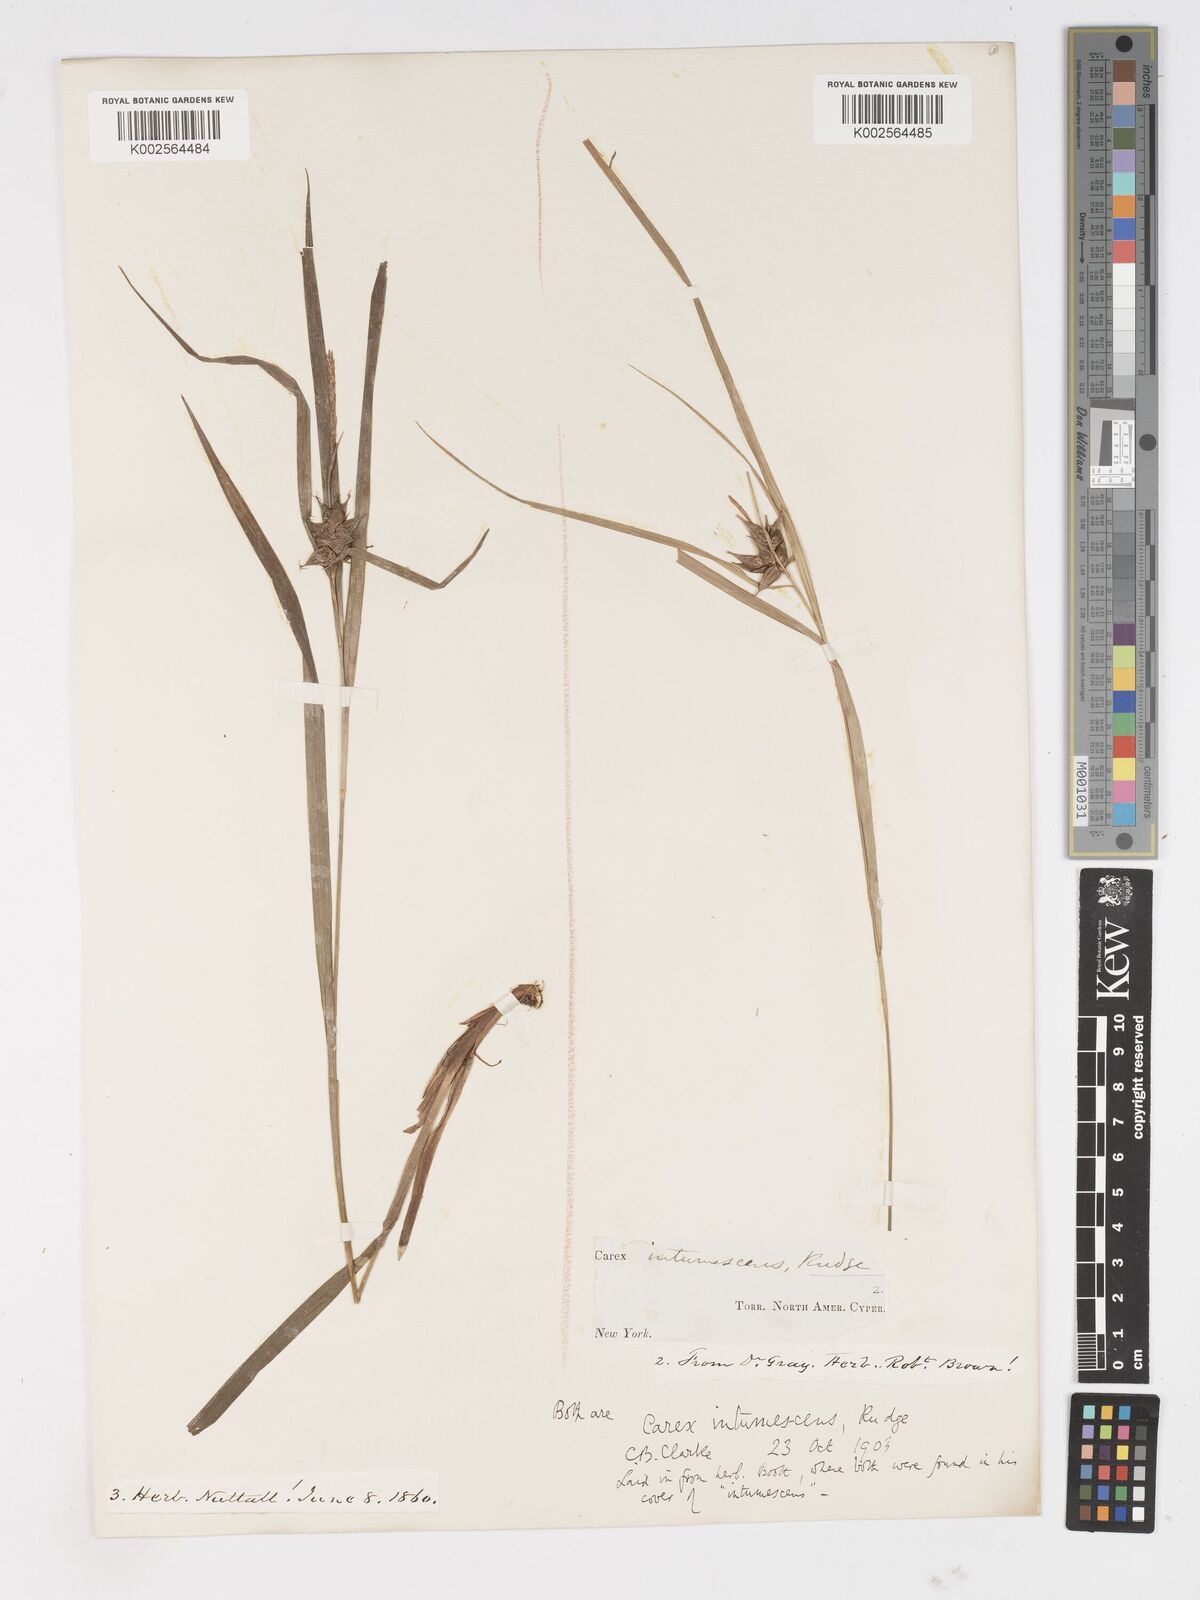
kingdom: Plantae
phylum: Tracheophyta
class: Liliopsida
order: Poales
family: Cyperaceae
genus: Carex
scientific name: Carex intumescens
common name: Greater bladder sedge
